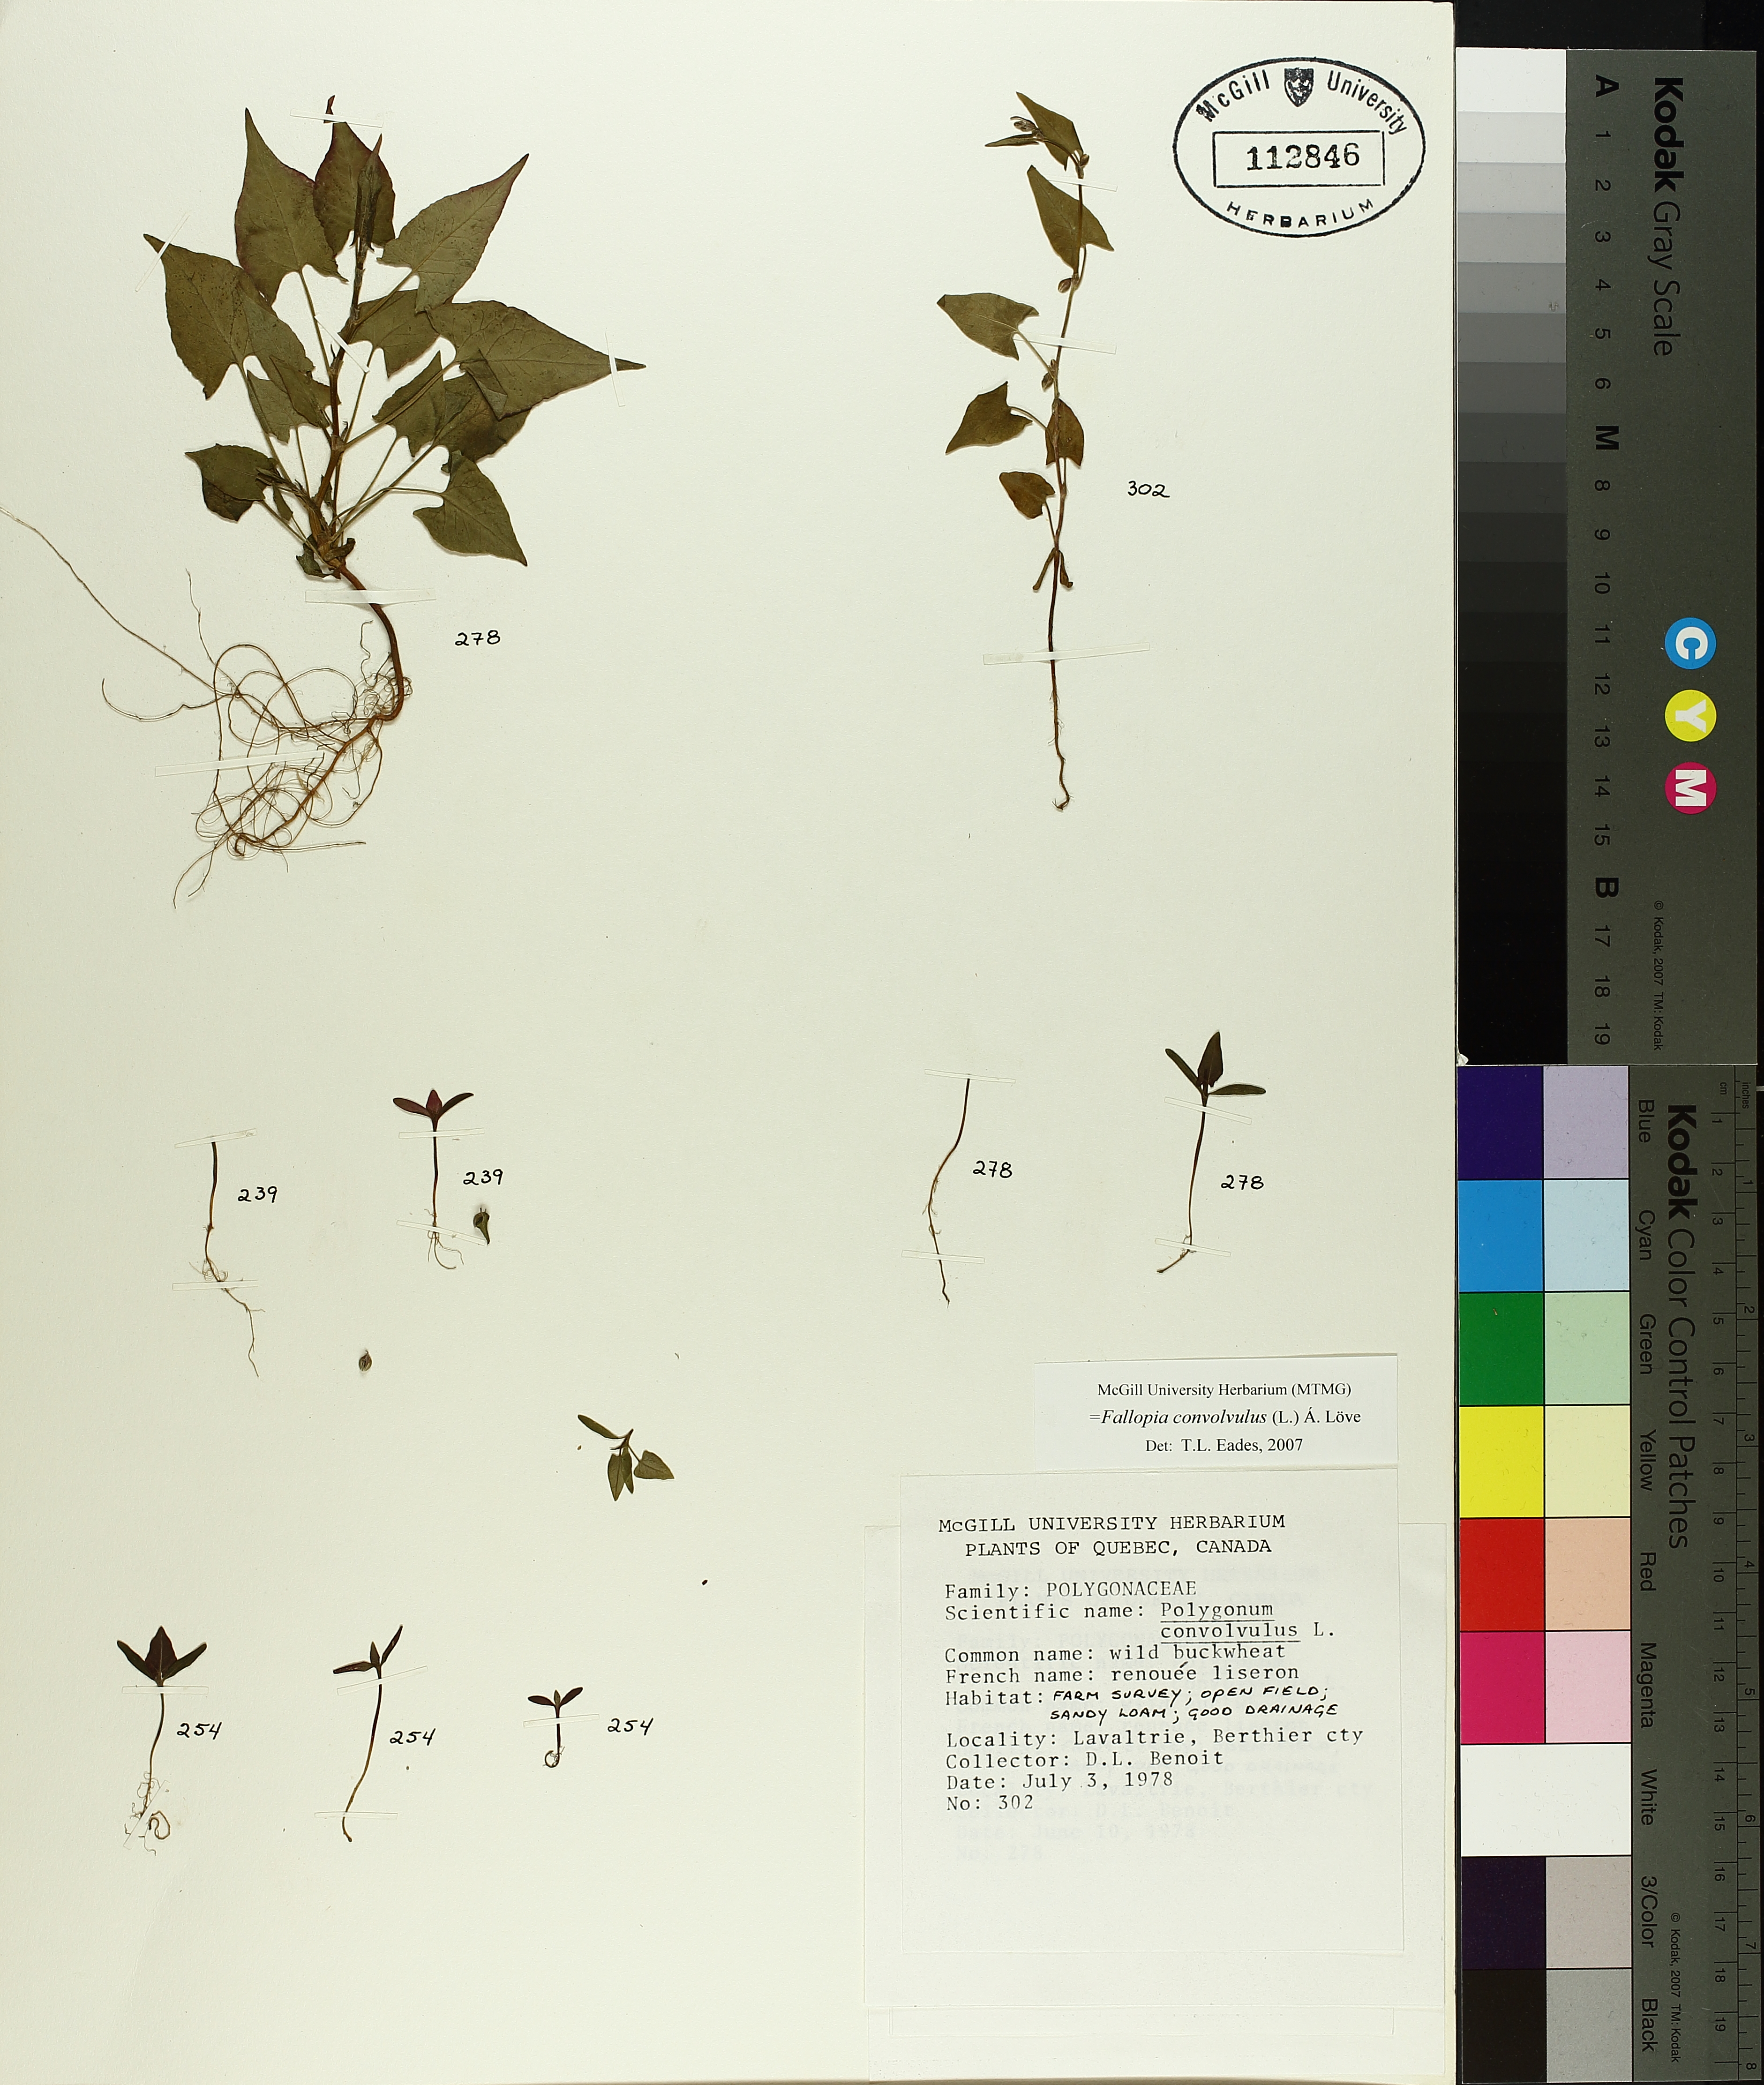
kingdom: Plantae
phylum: Tracheophyta
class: Magnoliopsida
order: Caryophyllales
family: Polygonaceae
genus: Fallopia
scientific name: Fallopia convolvulus
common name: Black bindweed
